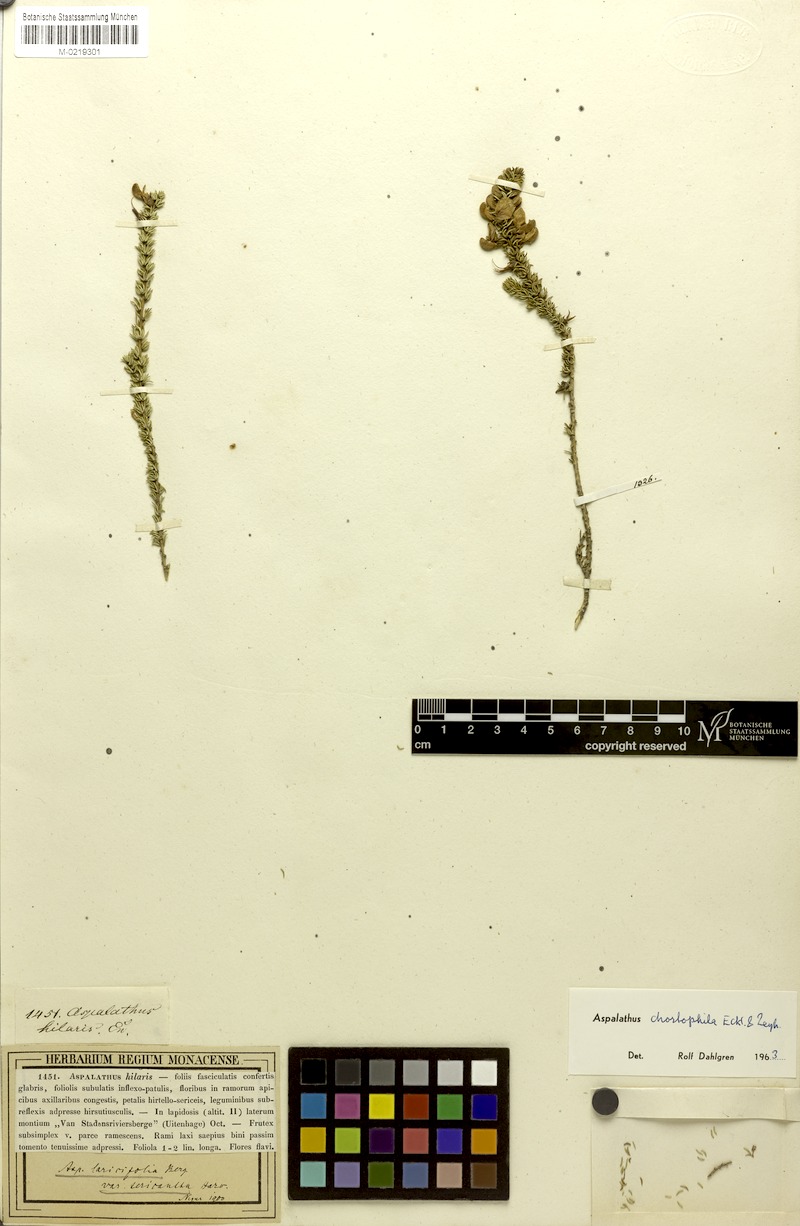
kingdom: Plantae
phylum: Tracheophyta
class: Magnoliopsida
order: Fabales
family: Fabaceae
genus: Aspalathus
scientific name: Aspalathus chortophila
